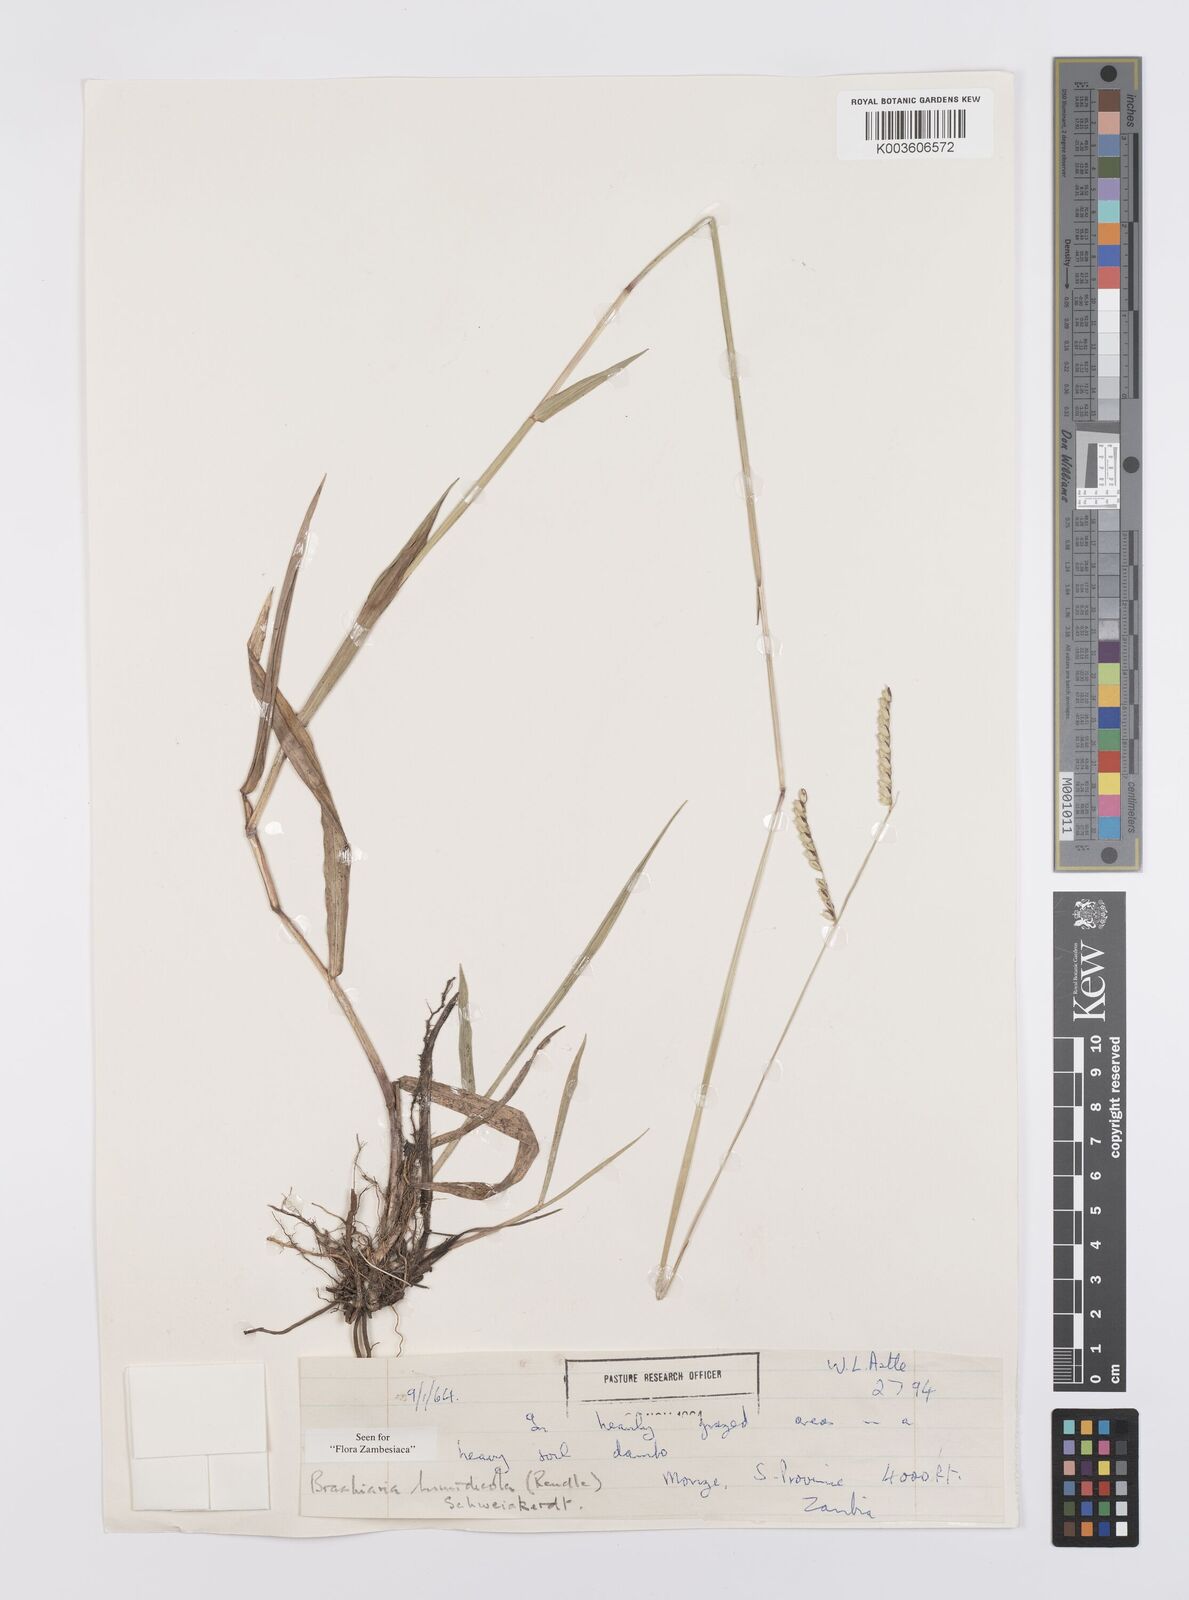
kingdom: Plantae
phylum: Tracheophyta
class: Liliopsida
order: Poales
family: Poaceae
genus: Urochloa
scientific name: Urochloa dictyoneura
